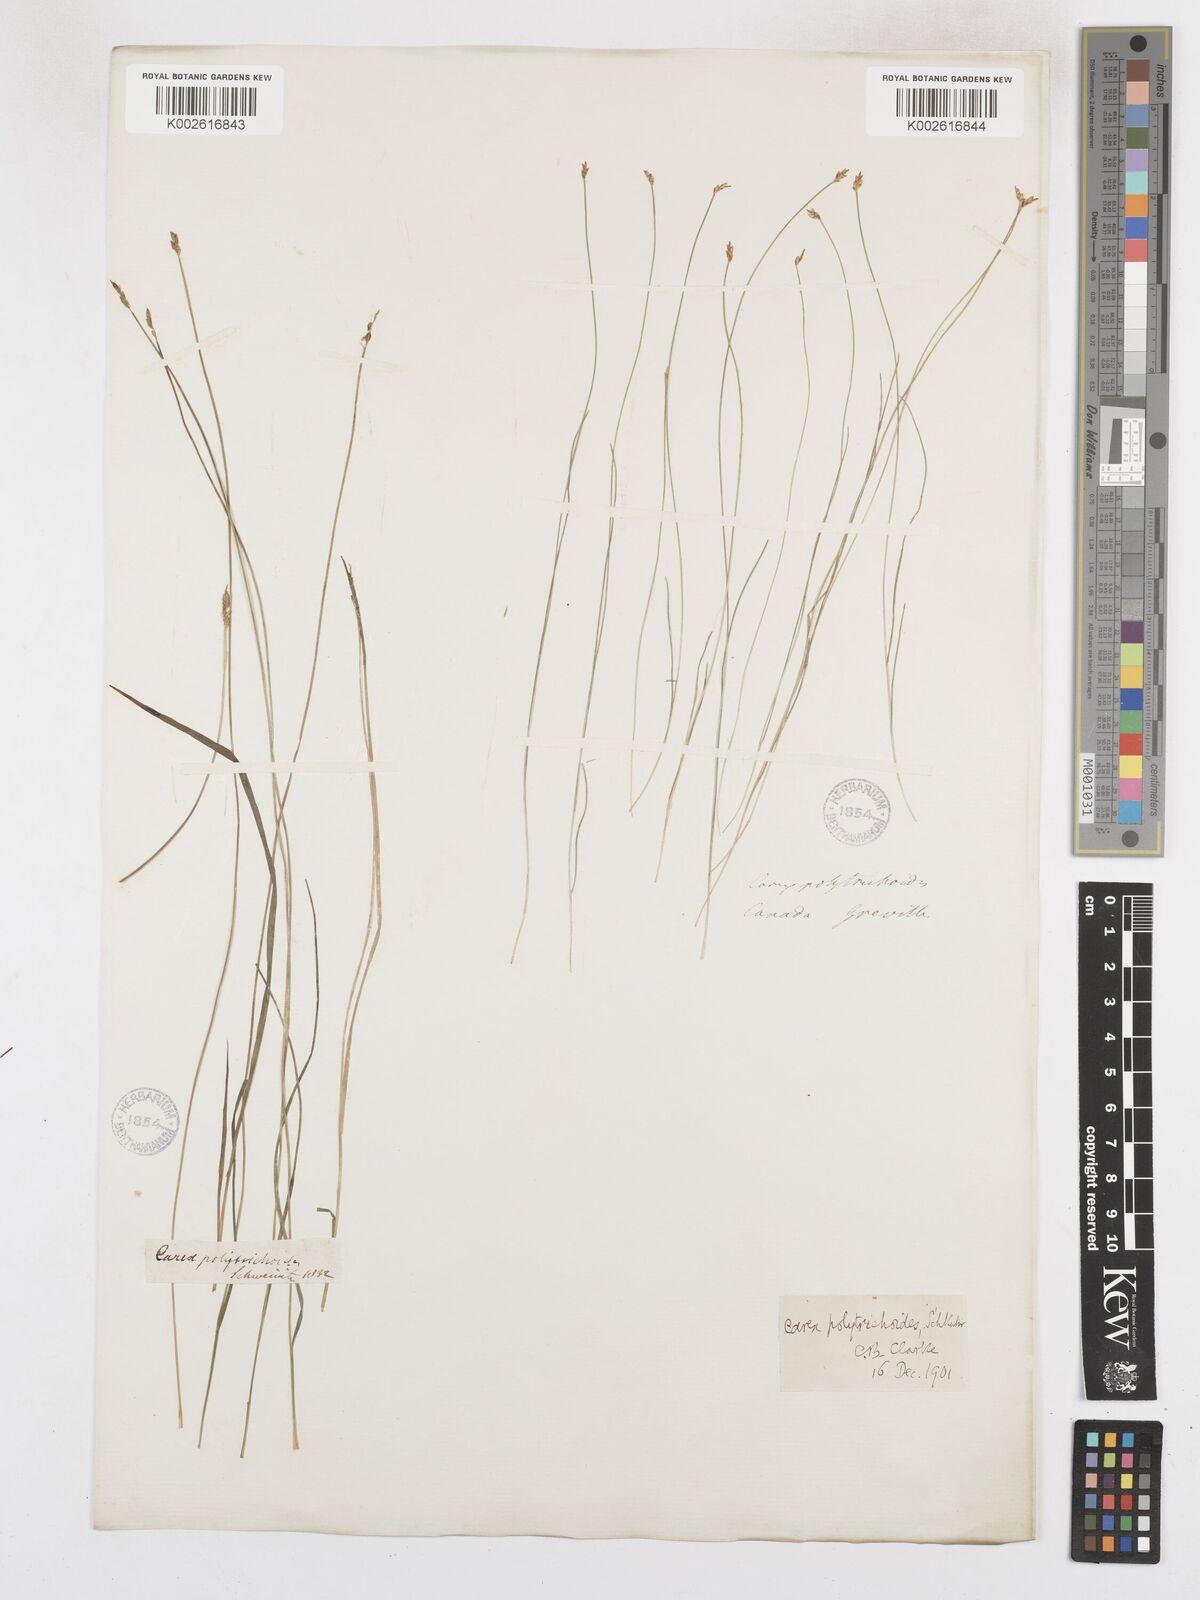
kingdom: Plantae
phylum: Tracheophyta
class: Liliopsida
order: Poales
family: Cyperaceae
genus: Carex
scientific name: Carex leptalea
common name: Bristly-stalked sedge
